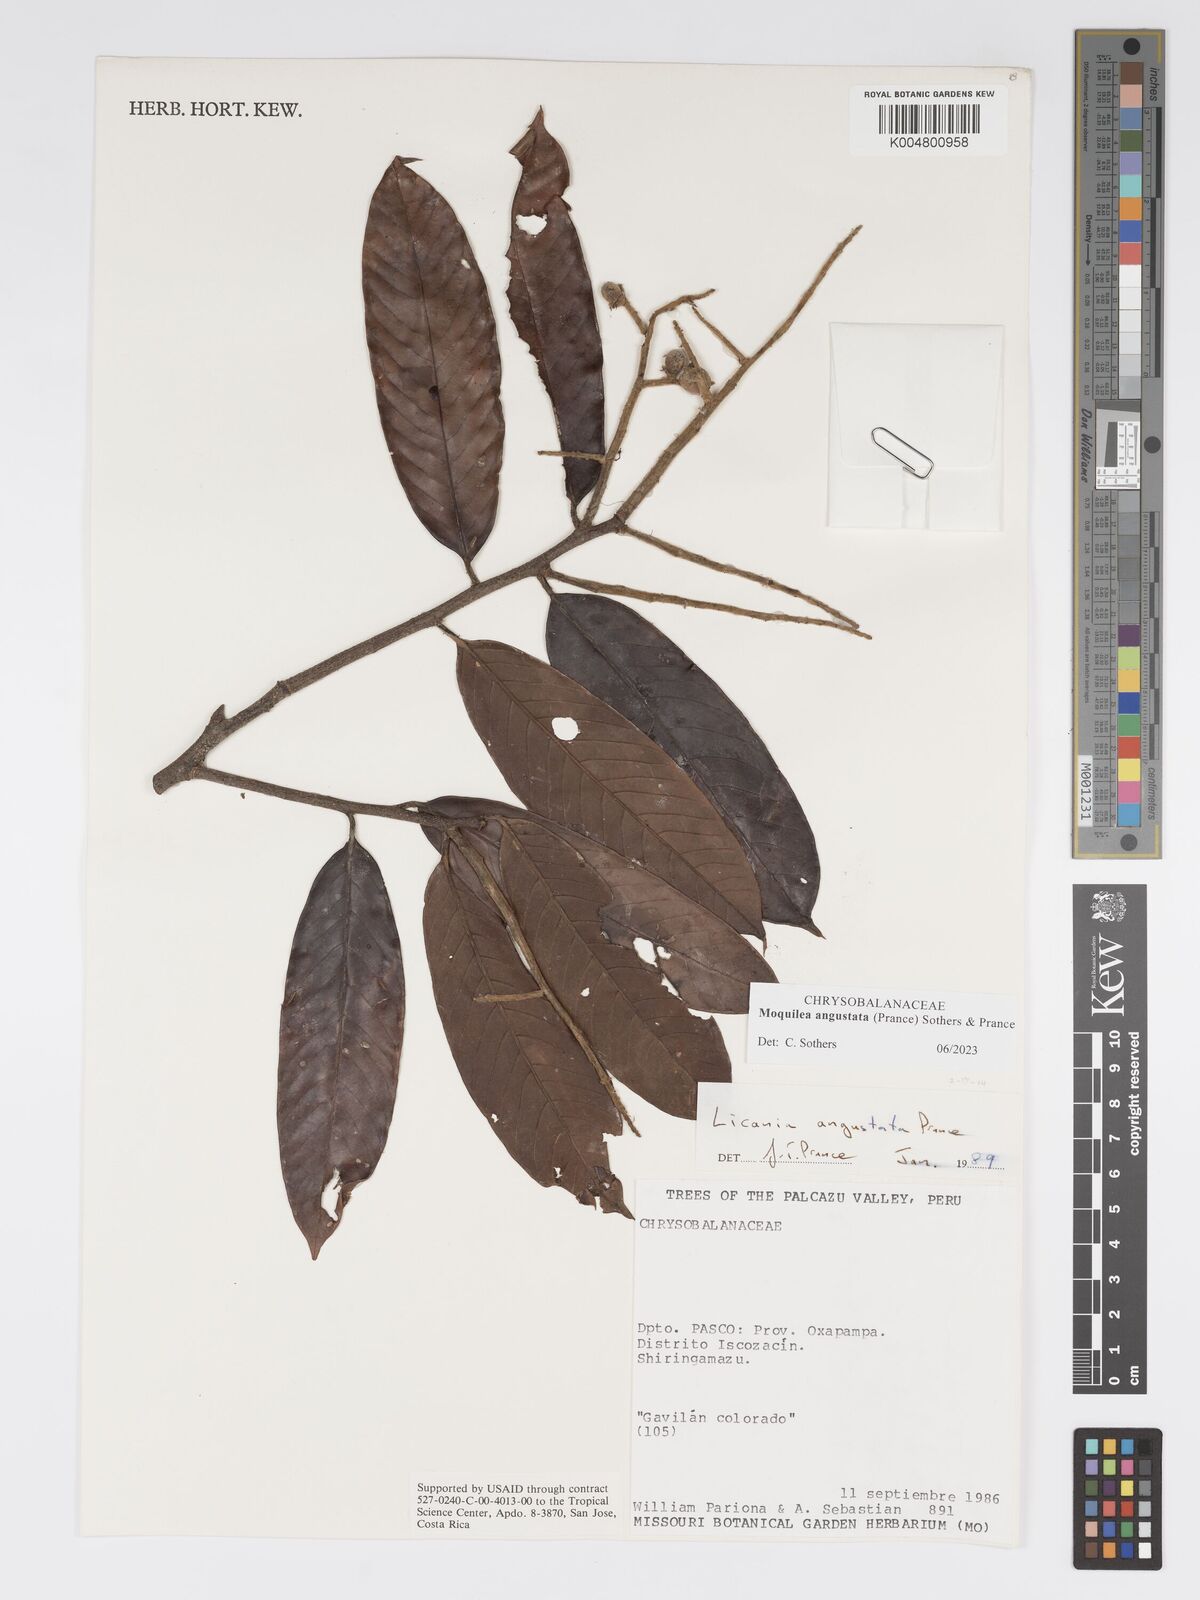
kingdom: Plantae
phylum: Tracheophyta
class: Magnoliopsida
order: Malpighiales
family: Chrysobalanaceae
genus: Moquilea
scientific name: Moquilea angustata
